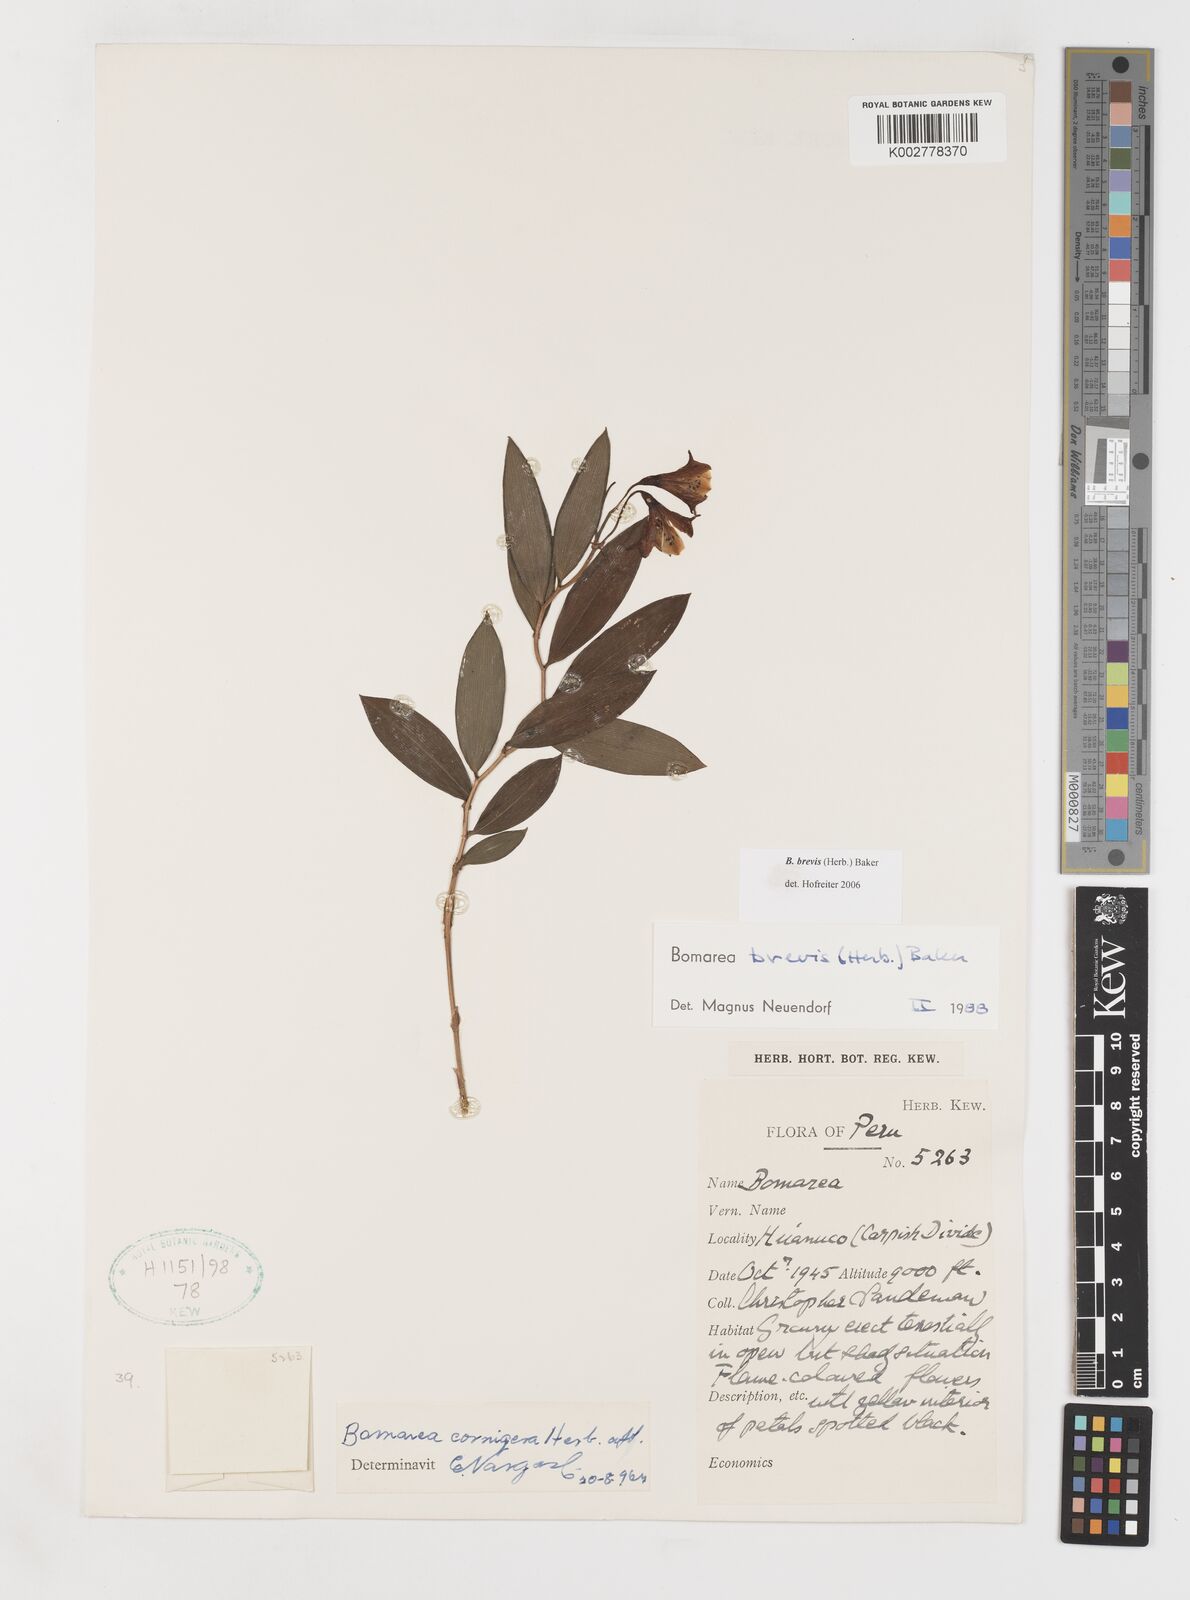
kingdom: Plantae
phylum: Tracheophyta
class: Liliopsida
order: Liliales
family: Alstroemeriaceae
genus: Bomarea
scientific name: Bomarea brevis
